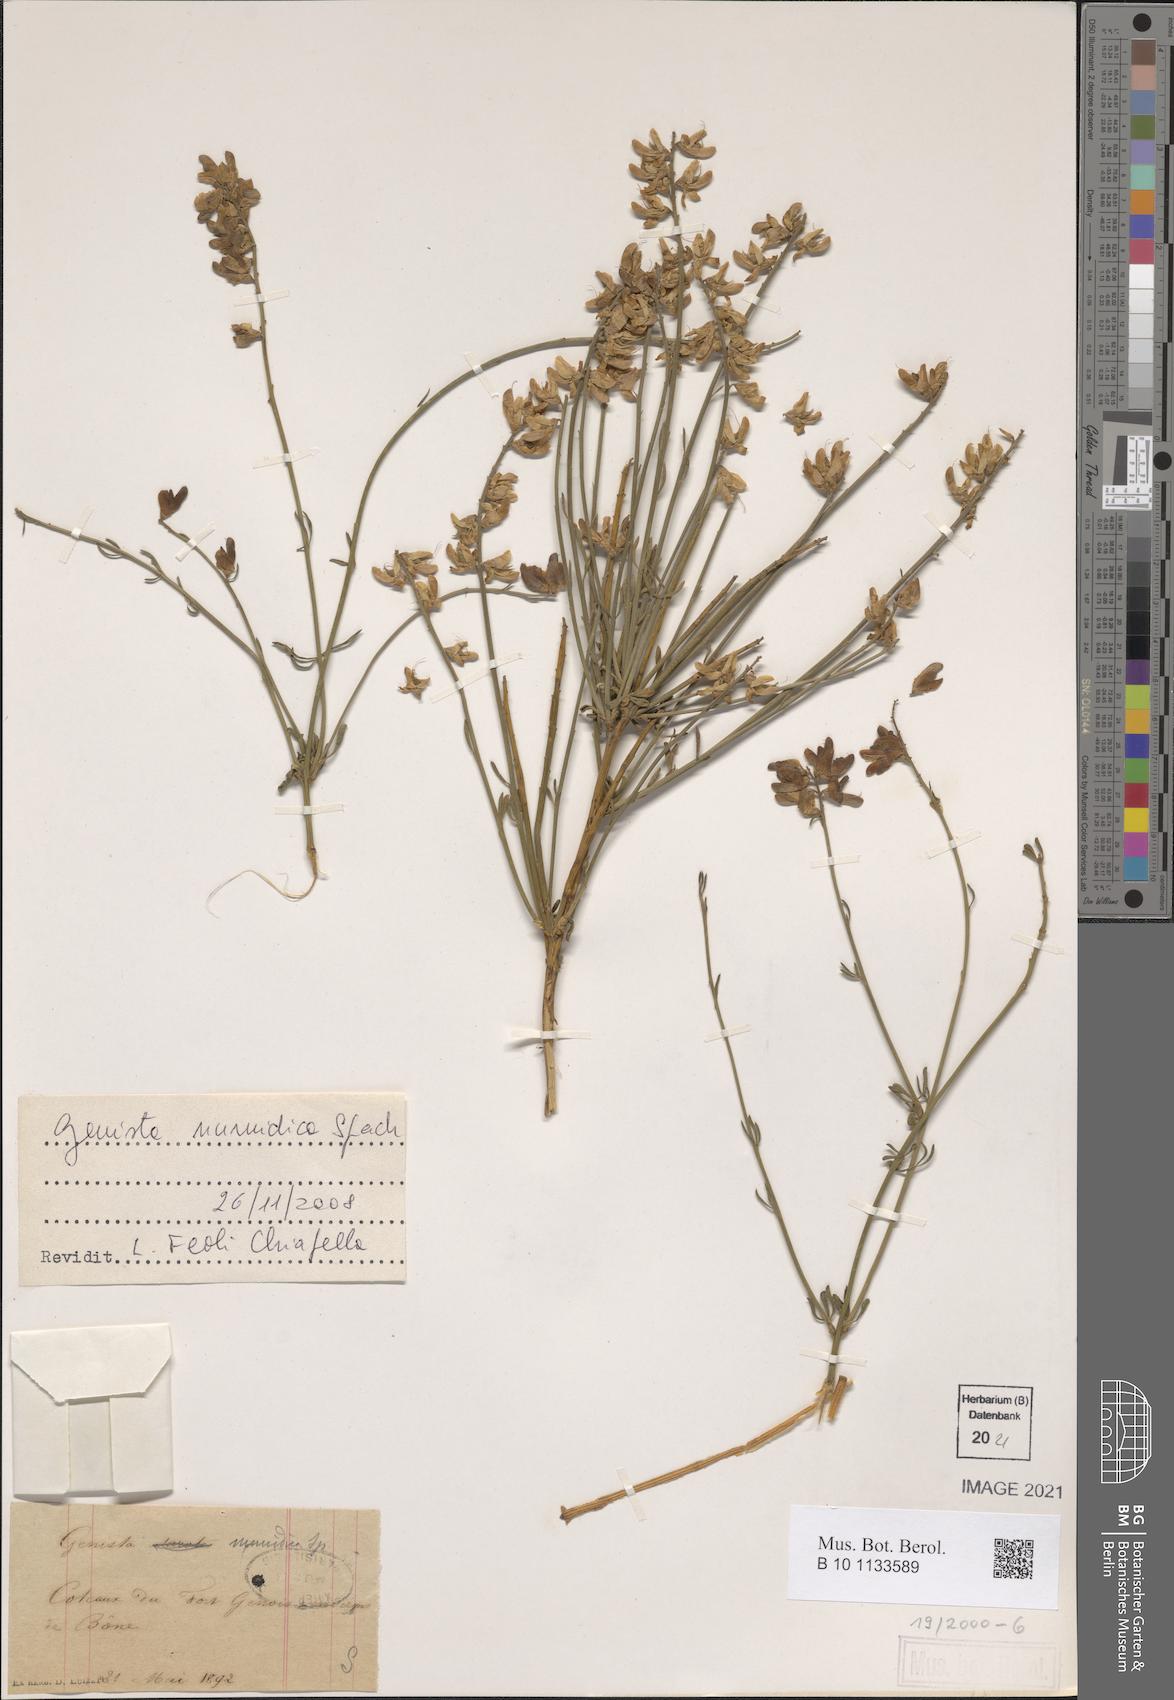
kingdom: Plantae
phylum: Tracheophyta
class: Magnoliopsida
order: Fabales
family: Fabaceae
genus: Genista
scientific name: Genista numidica
